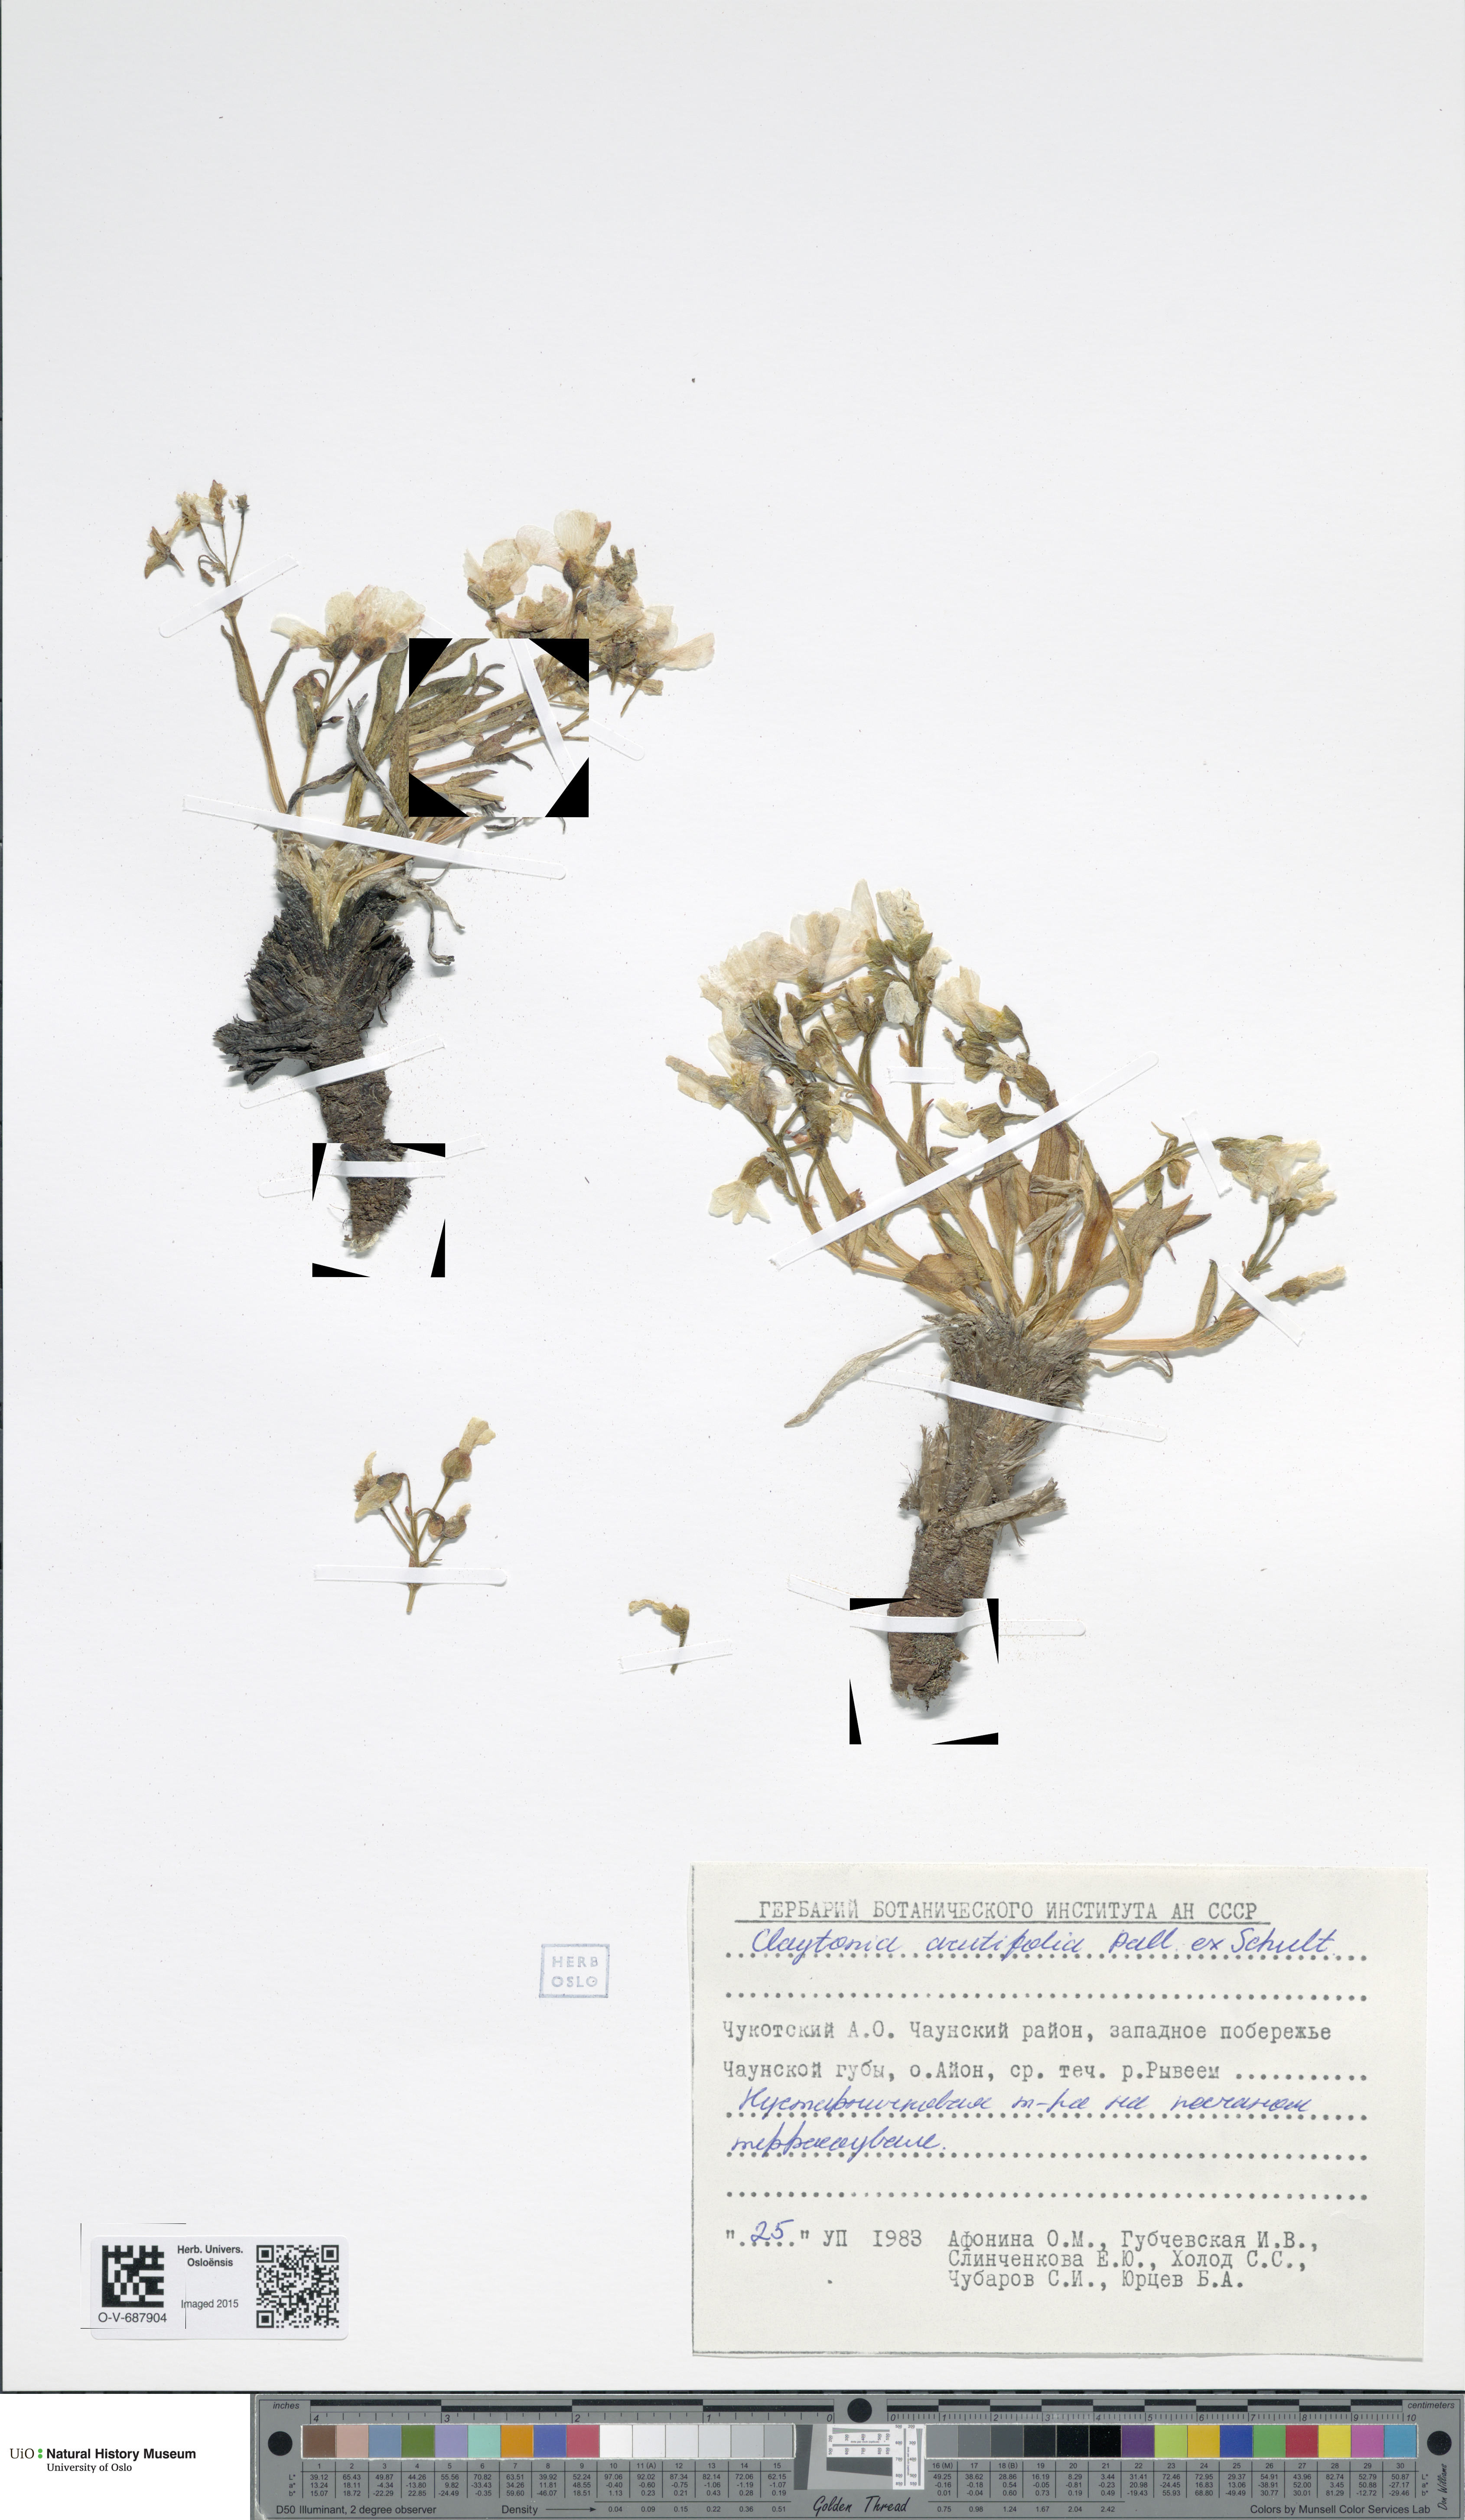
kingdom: Plantae
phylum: Tracheophyta
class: Magnoliopsida
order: Caryophyllales
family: Montiaceae
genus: Claytonia
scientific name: Claytonia acutifolia
